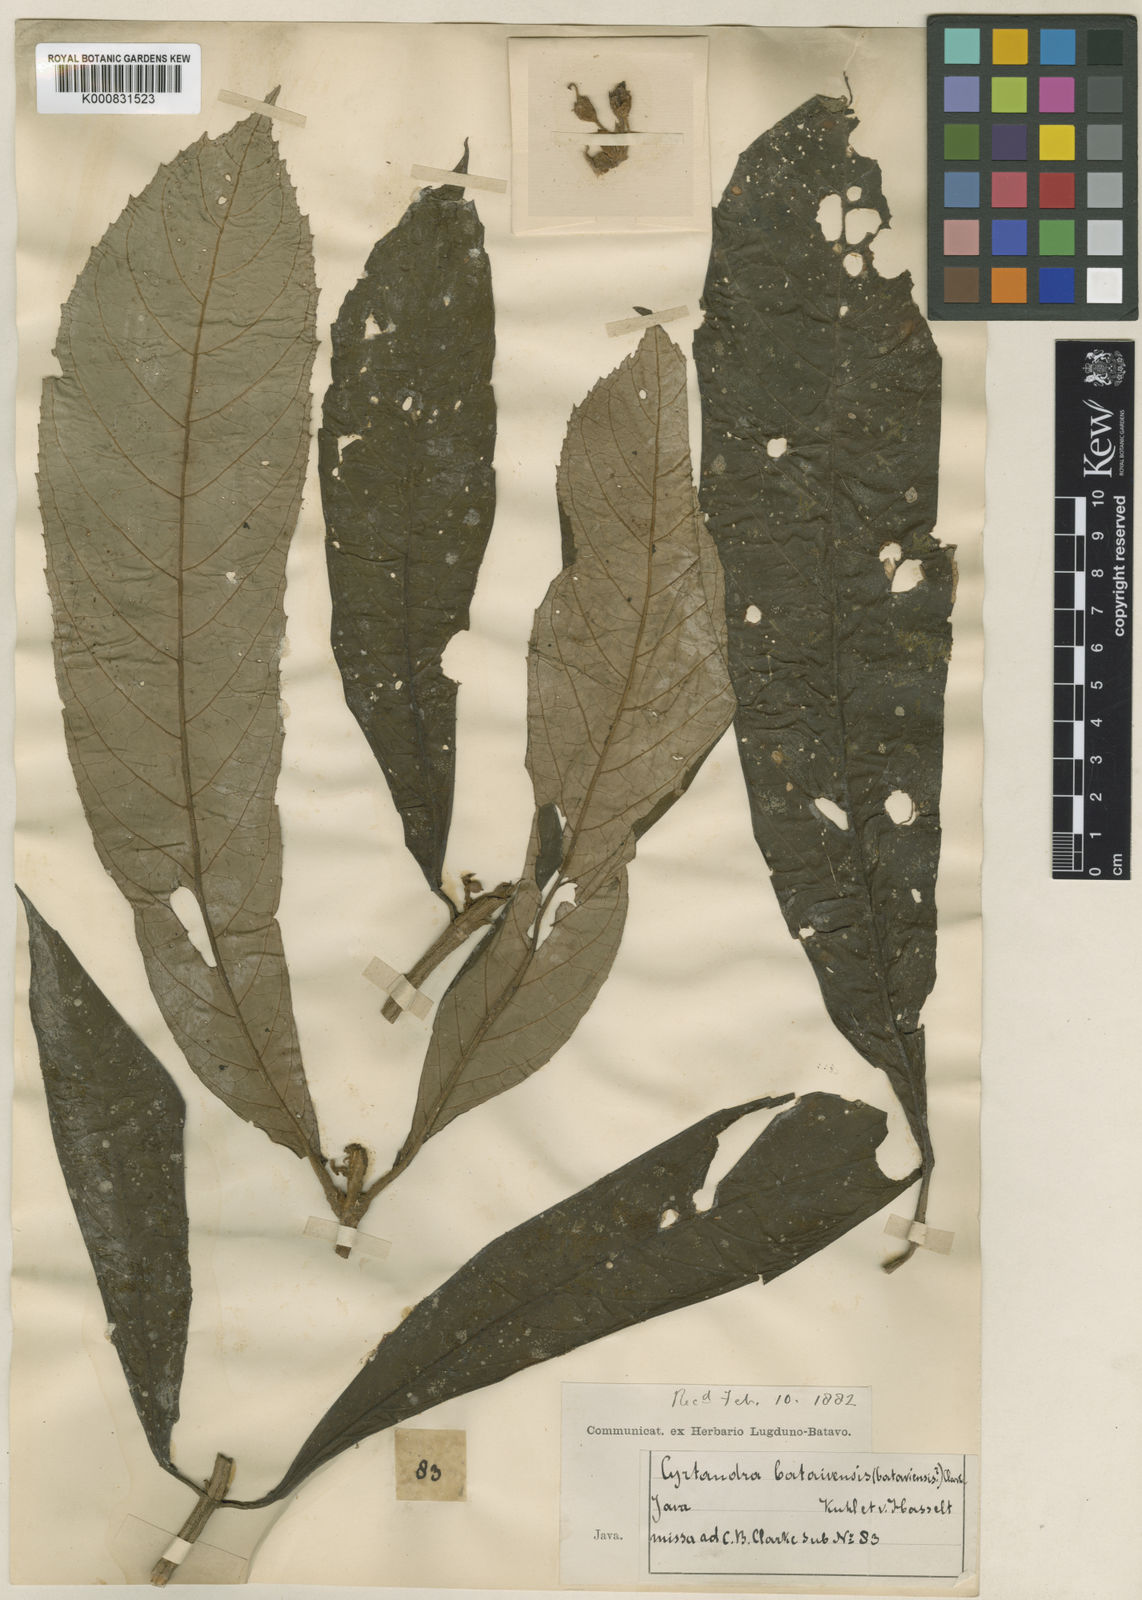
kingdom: Plantae
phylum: Tracheophyta
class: Magnoliopsida
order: Lamiales
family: Gesneriaceae
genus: Cyrtandra
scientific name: Cyrtandra sandei
